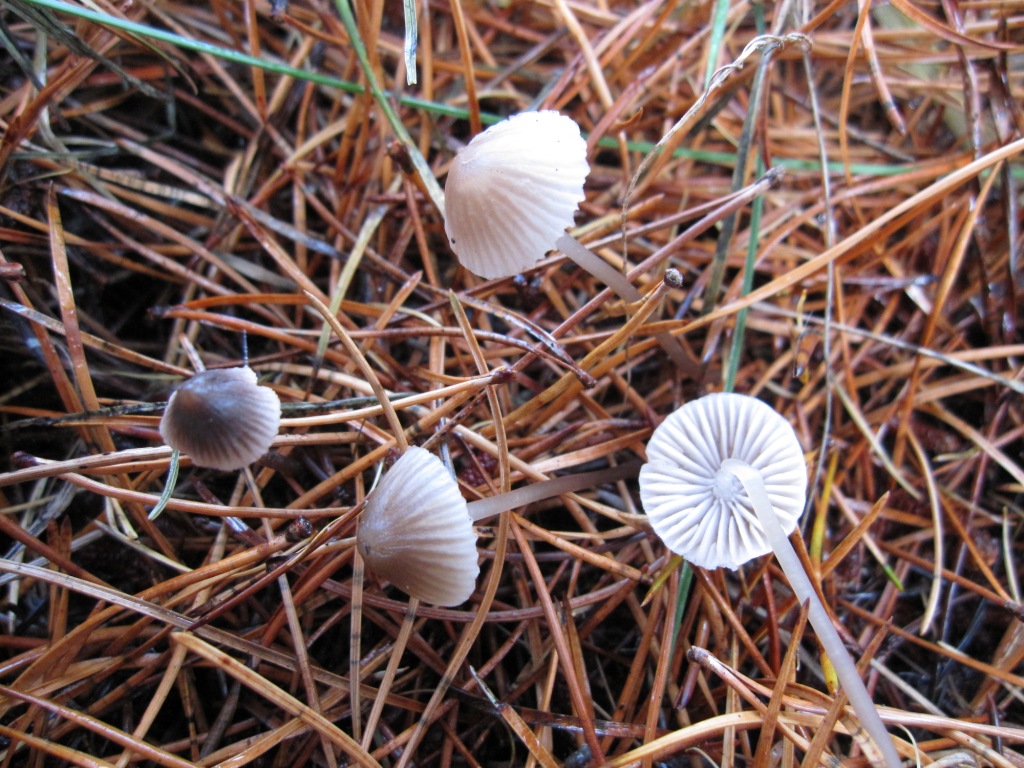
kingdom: Fungi
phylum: Basidiomycota
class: Agaricomycetes
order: Agaricales
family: Mycenaceae
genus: Mycena
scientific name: Mycena capillaripes
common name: nåle-huesvamp
